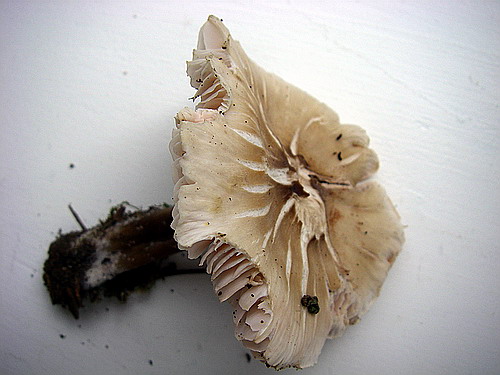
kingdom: Fungi
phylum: Basidiomycota
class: Agaricomycetes
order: Agaricales
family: Mycenaceae
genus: Mycena
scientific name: Mycena galericulata
